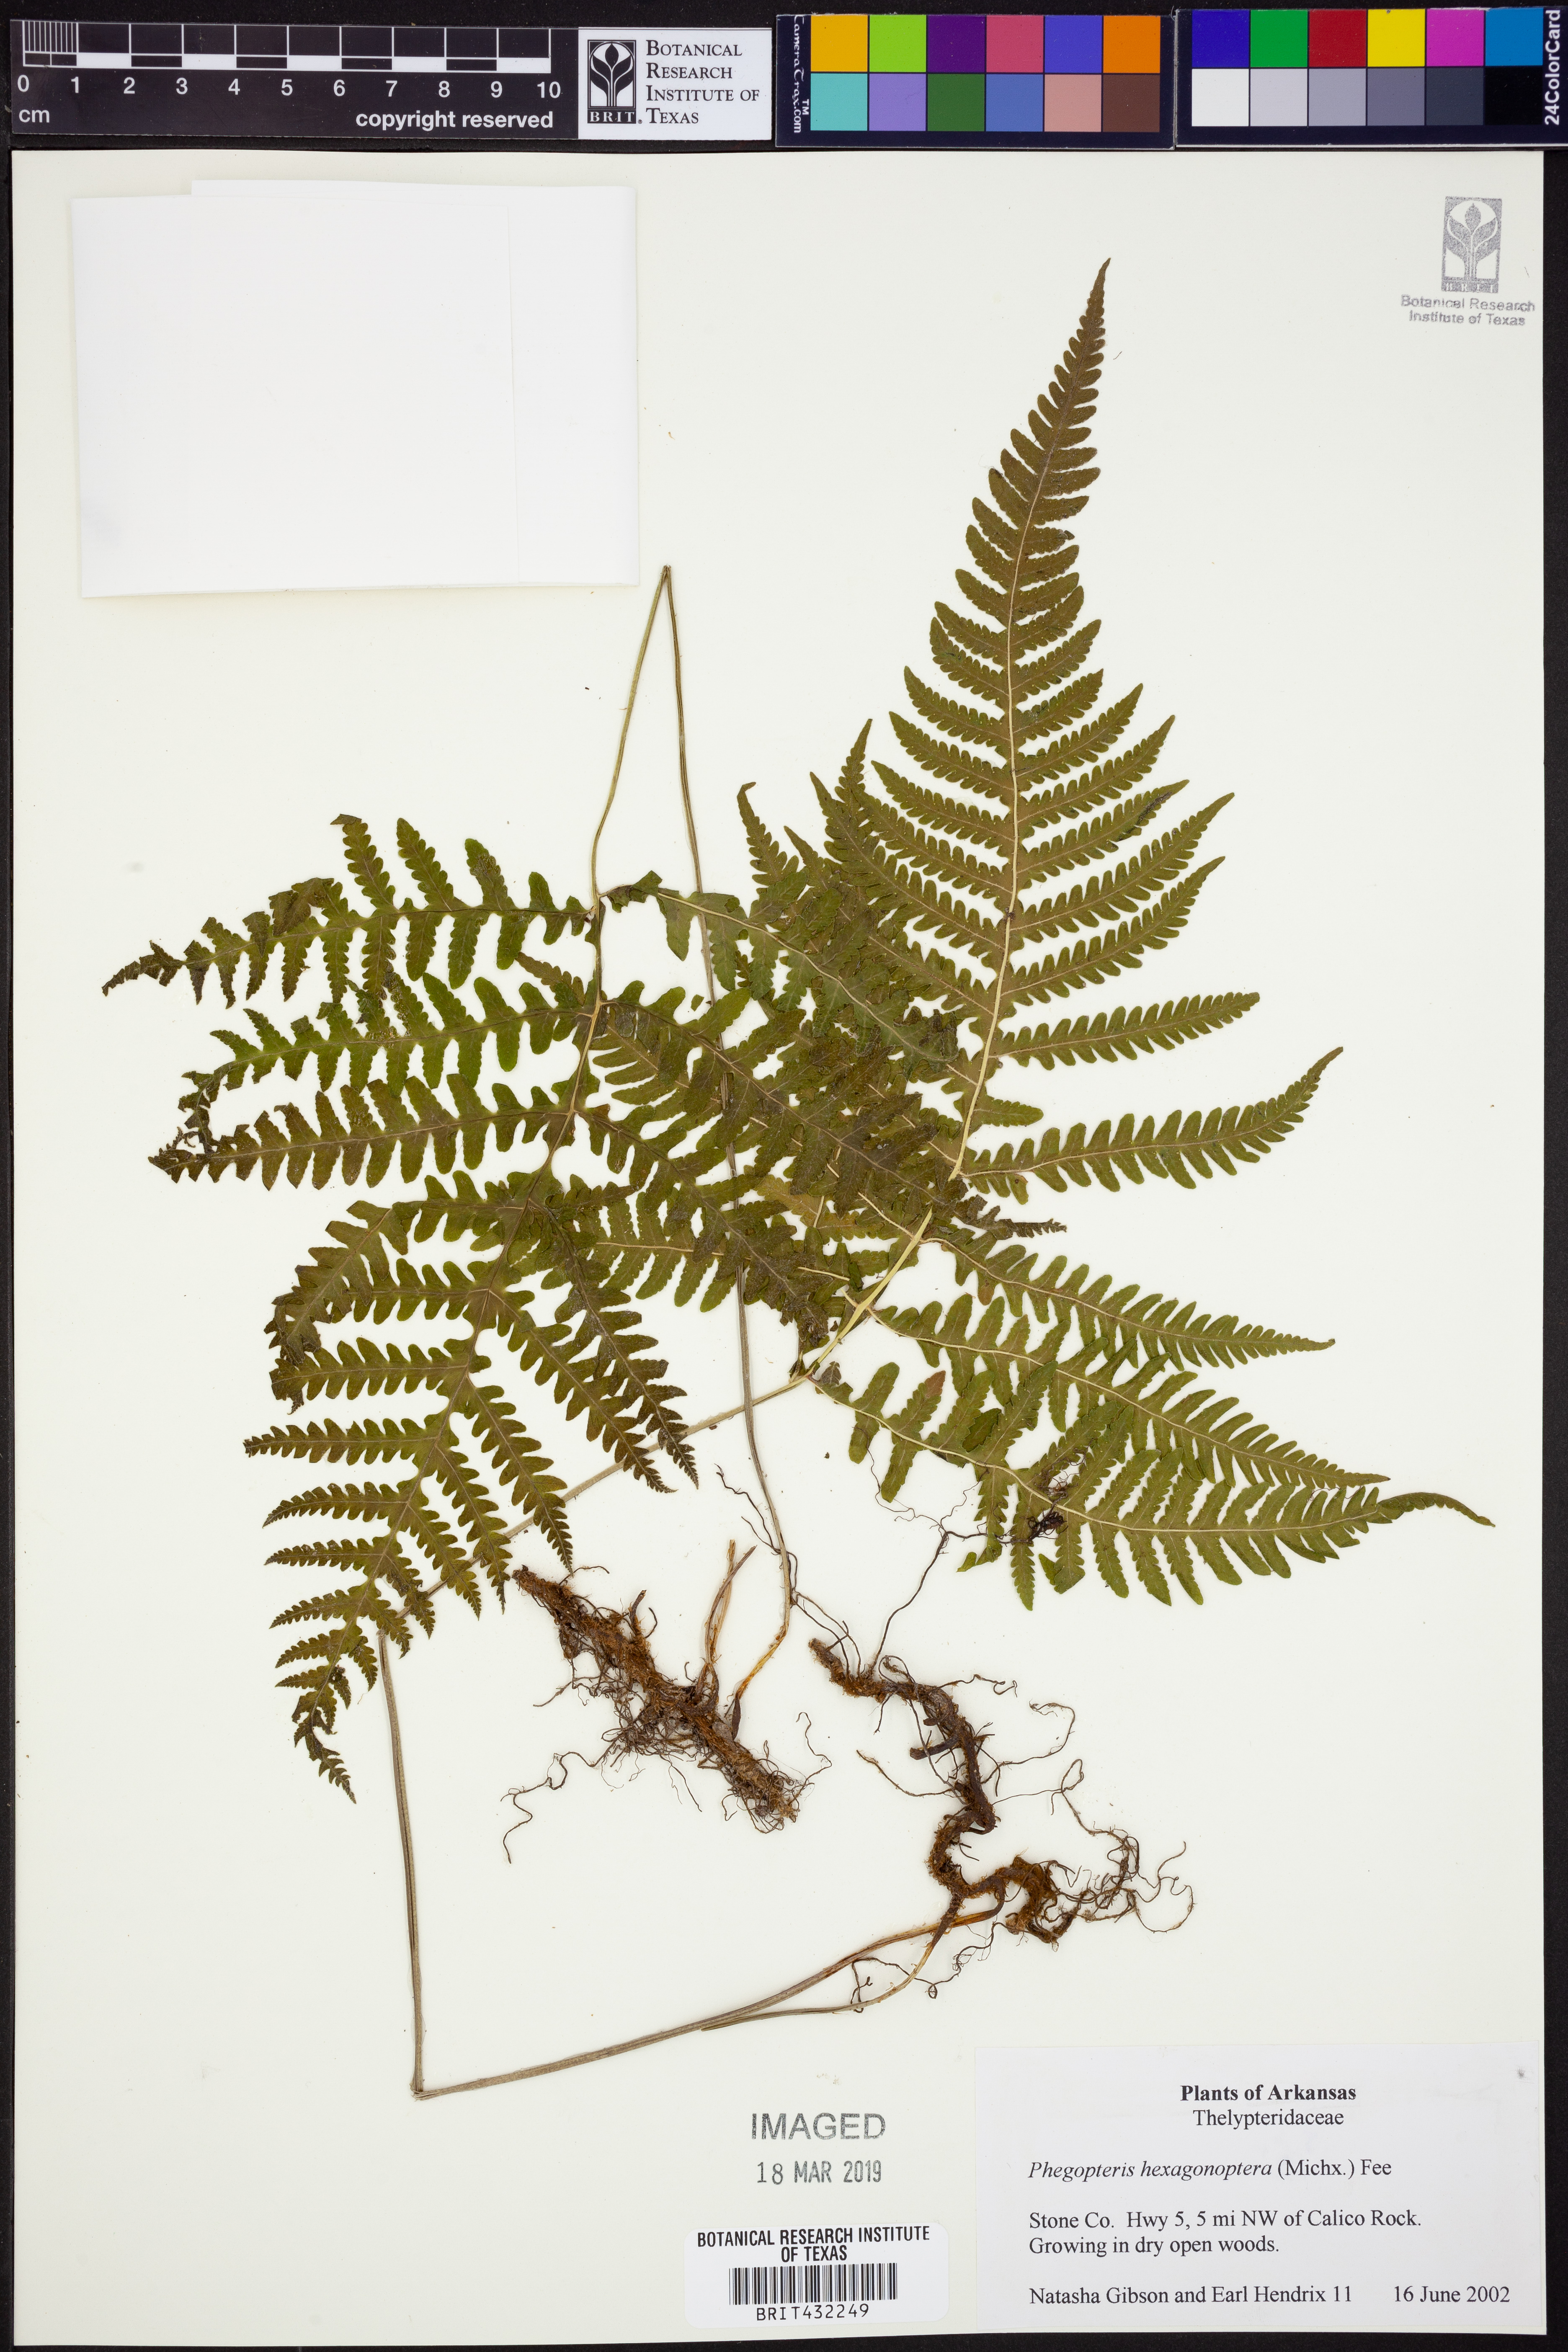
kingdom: Plantae
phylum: Tracheophyta
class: Polypodiopsida
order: Polypodiales
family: Thelypteridaceae
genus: Phegopteris
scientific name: Phegopteris hexagonoptera
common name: Broad beech fern
